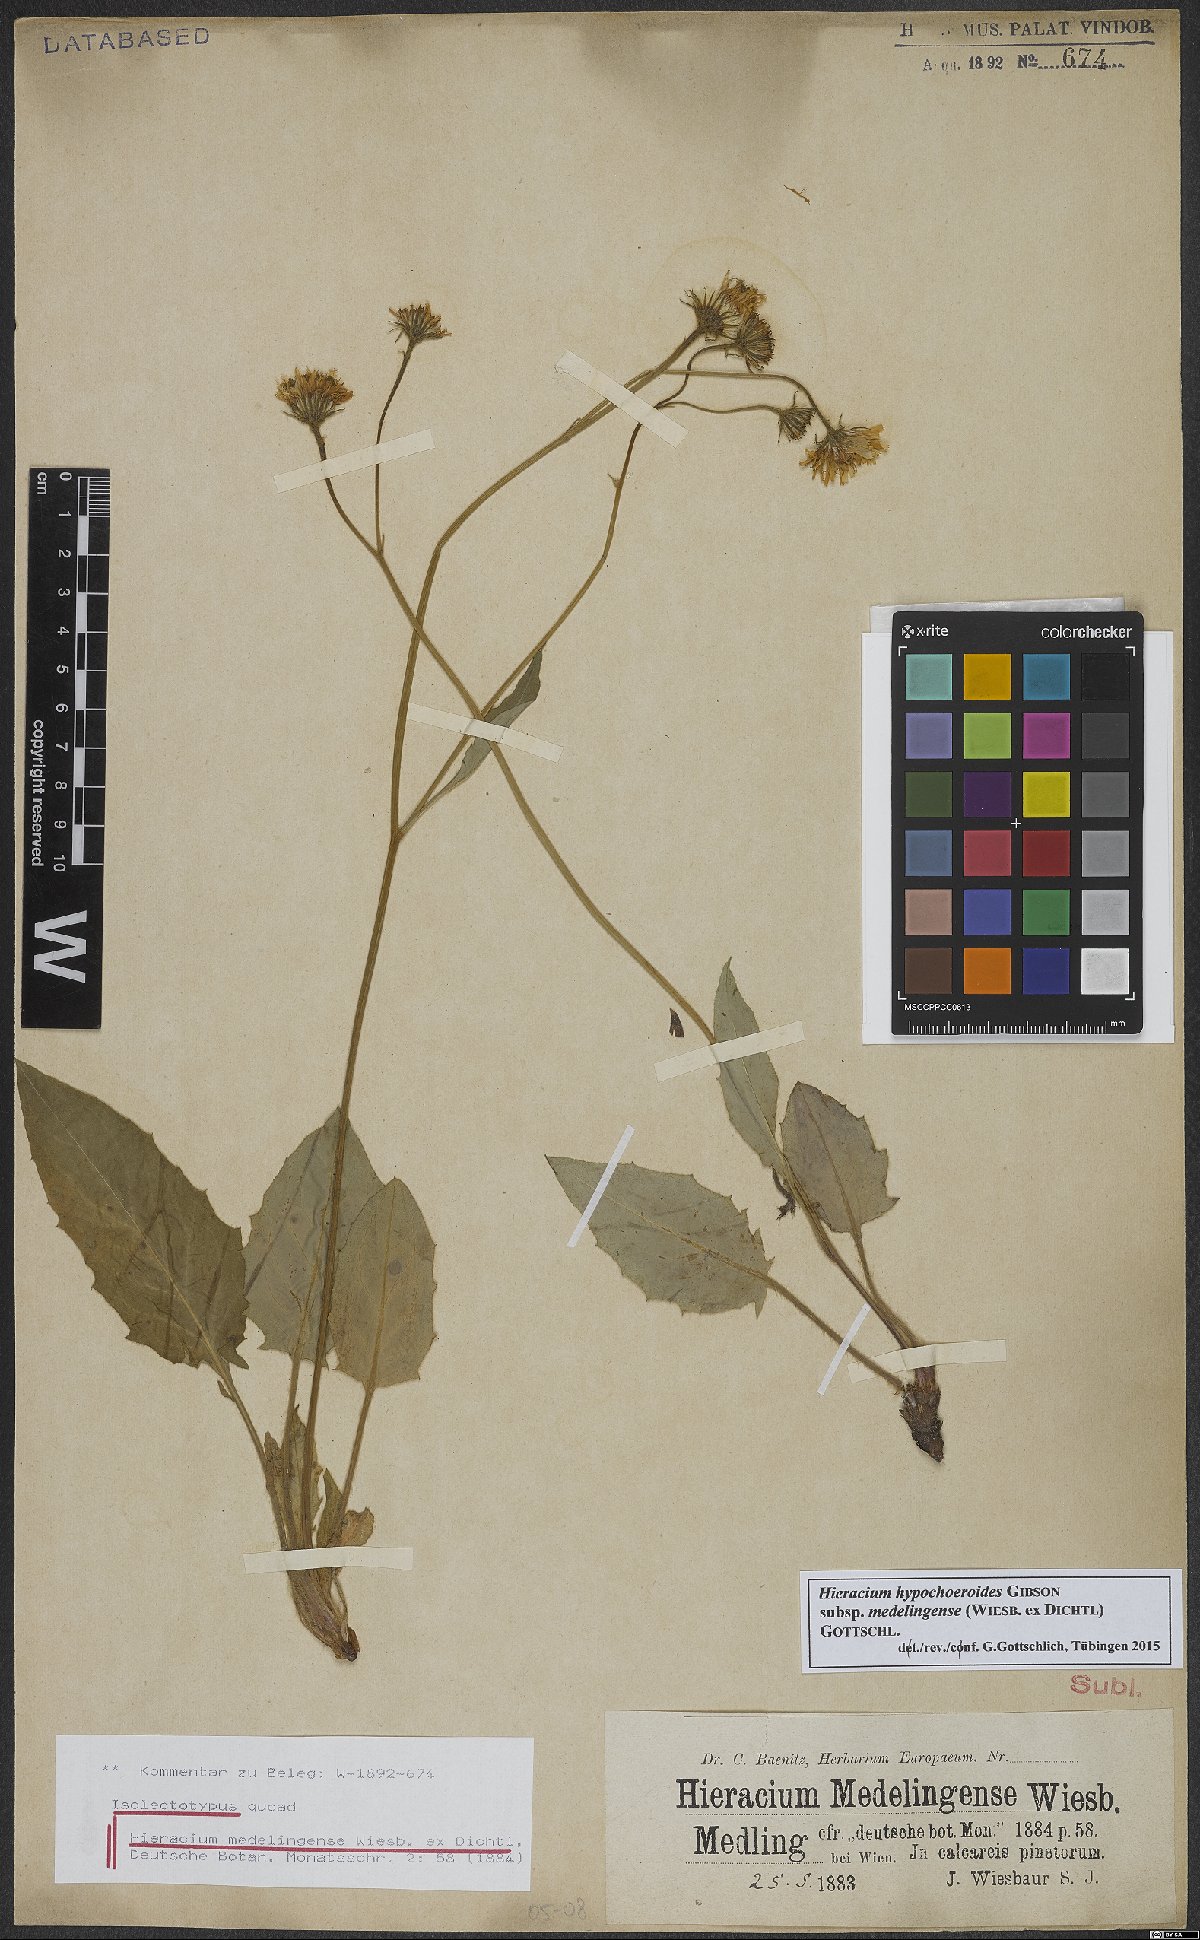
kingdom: Plantae
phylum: Tracheophyta
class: Magnoliopsida
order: Asterales
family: Asteraceae
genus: Hieracium
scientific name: Hieracium hypochoeroides
